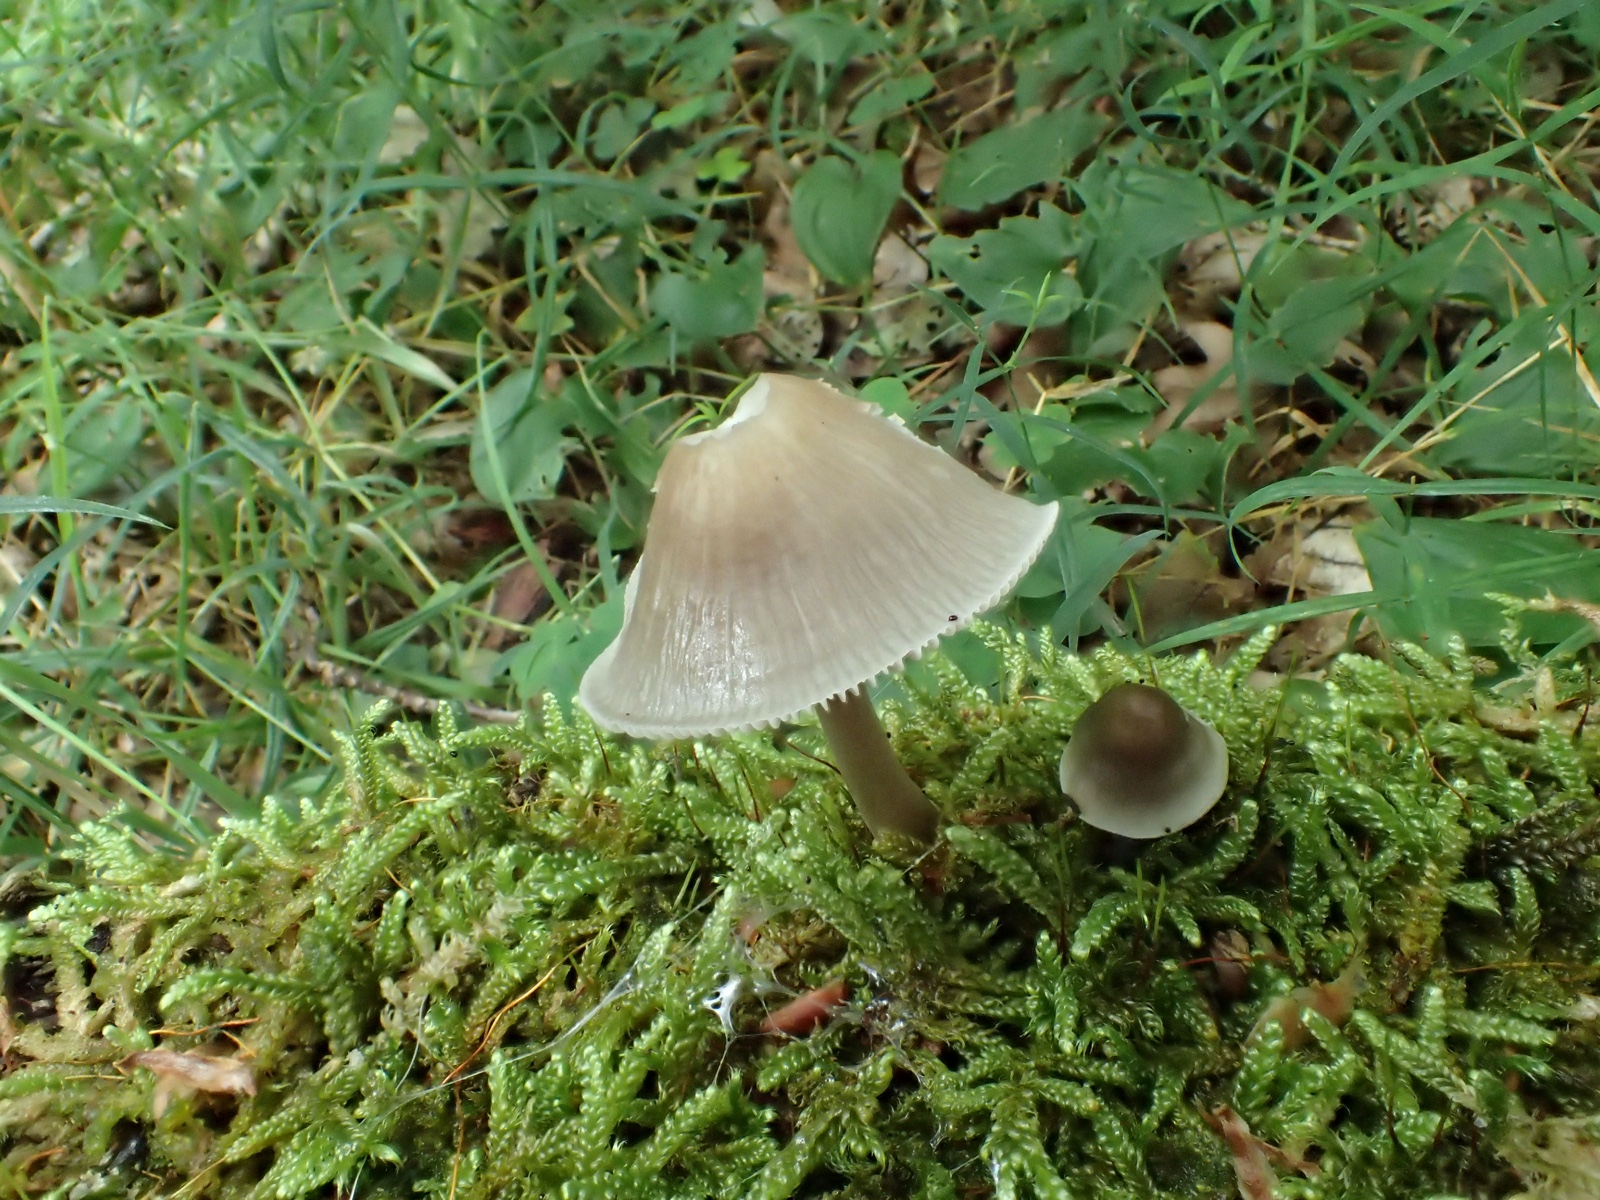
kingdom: Fungi
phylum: Basidiomycota
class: Agaricomycetes
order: Agaricales
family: Mycenaceae
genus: Mycena
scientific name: Mycena galericulata
